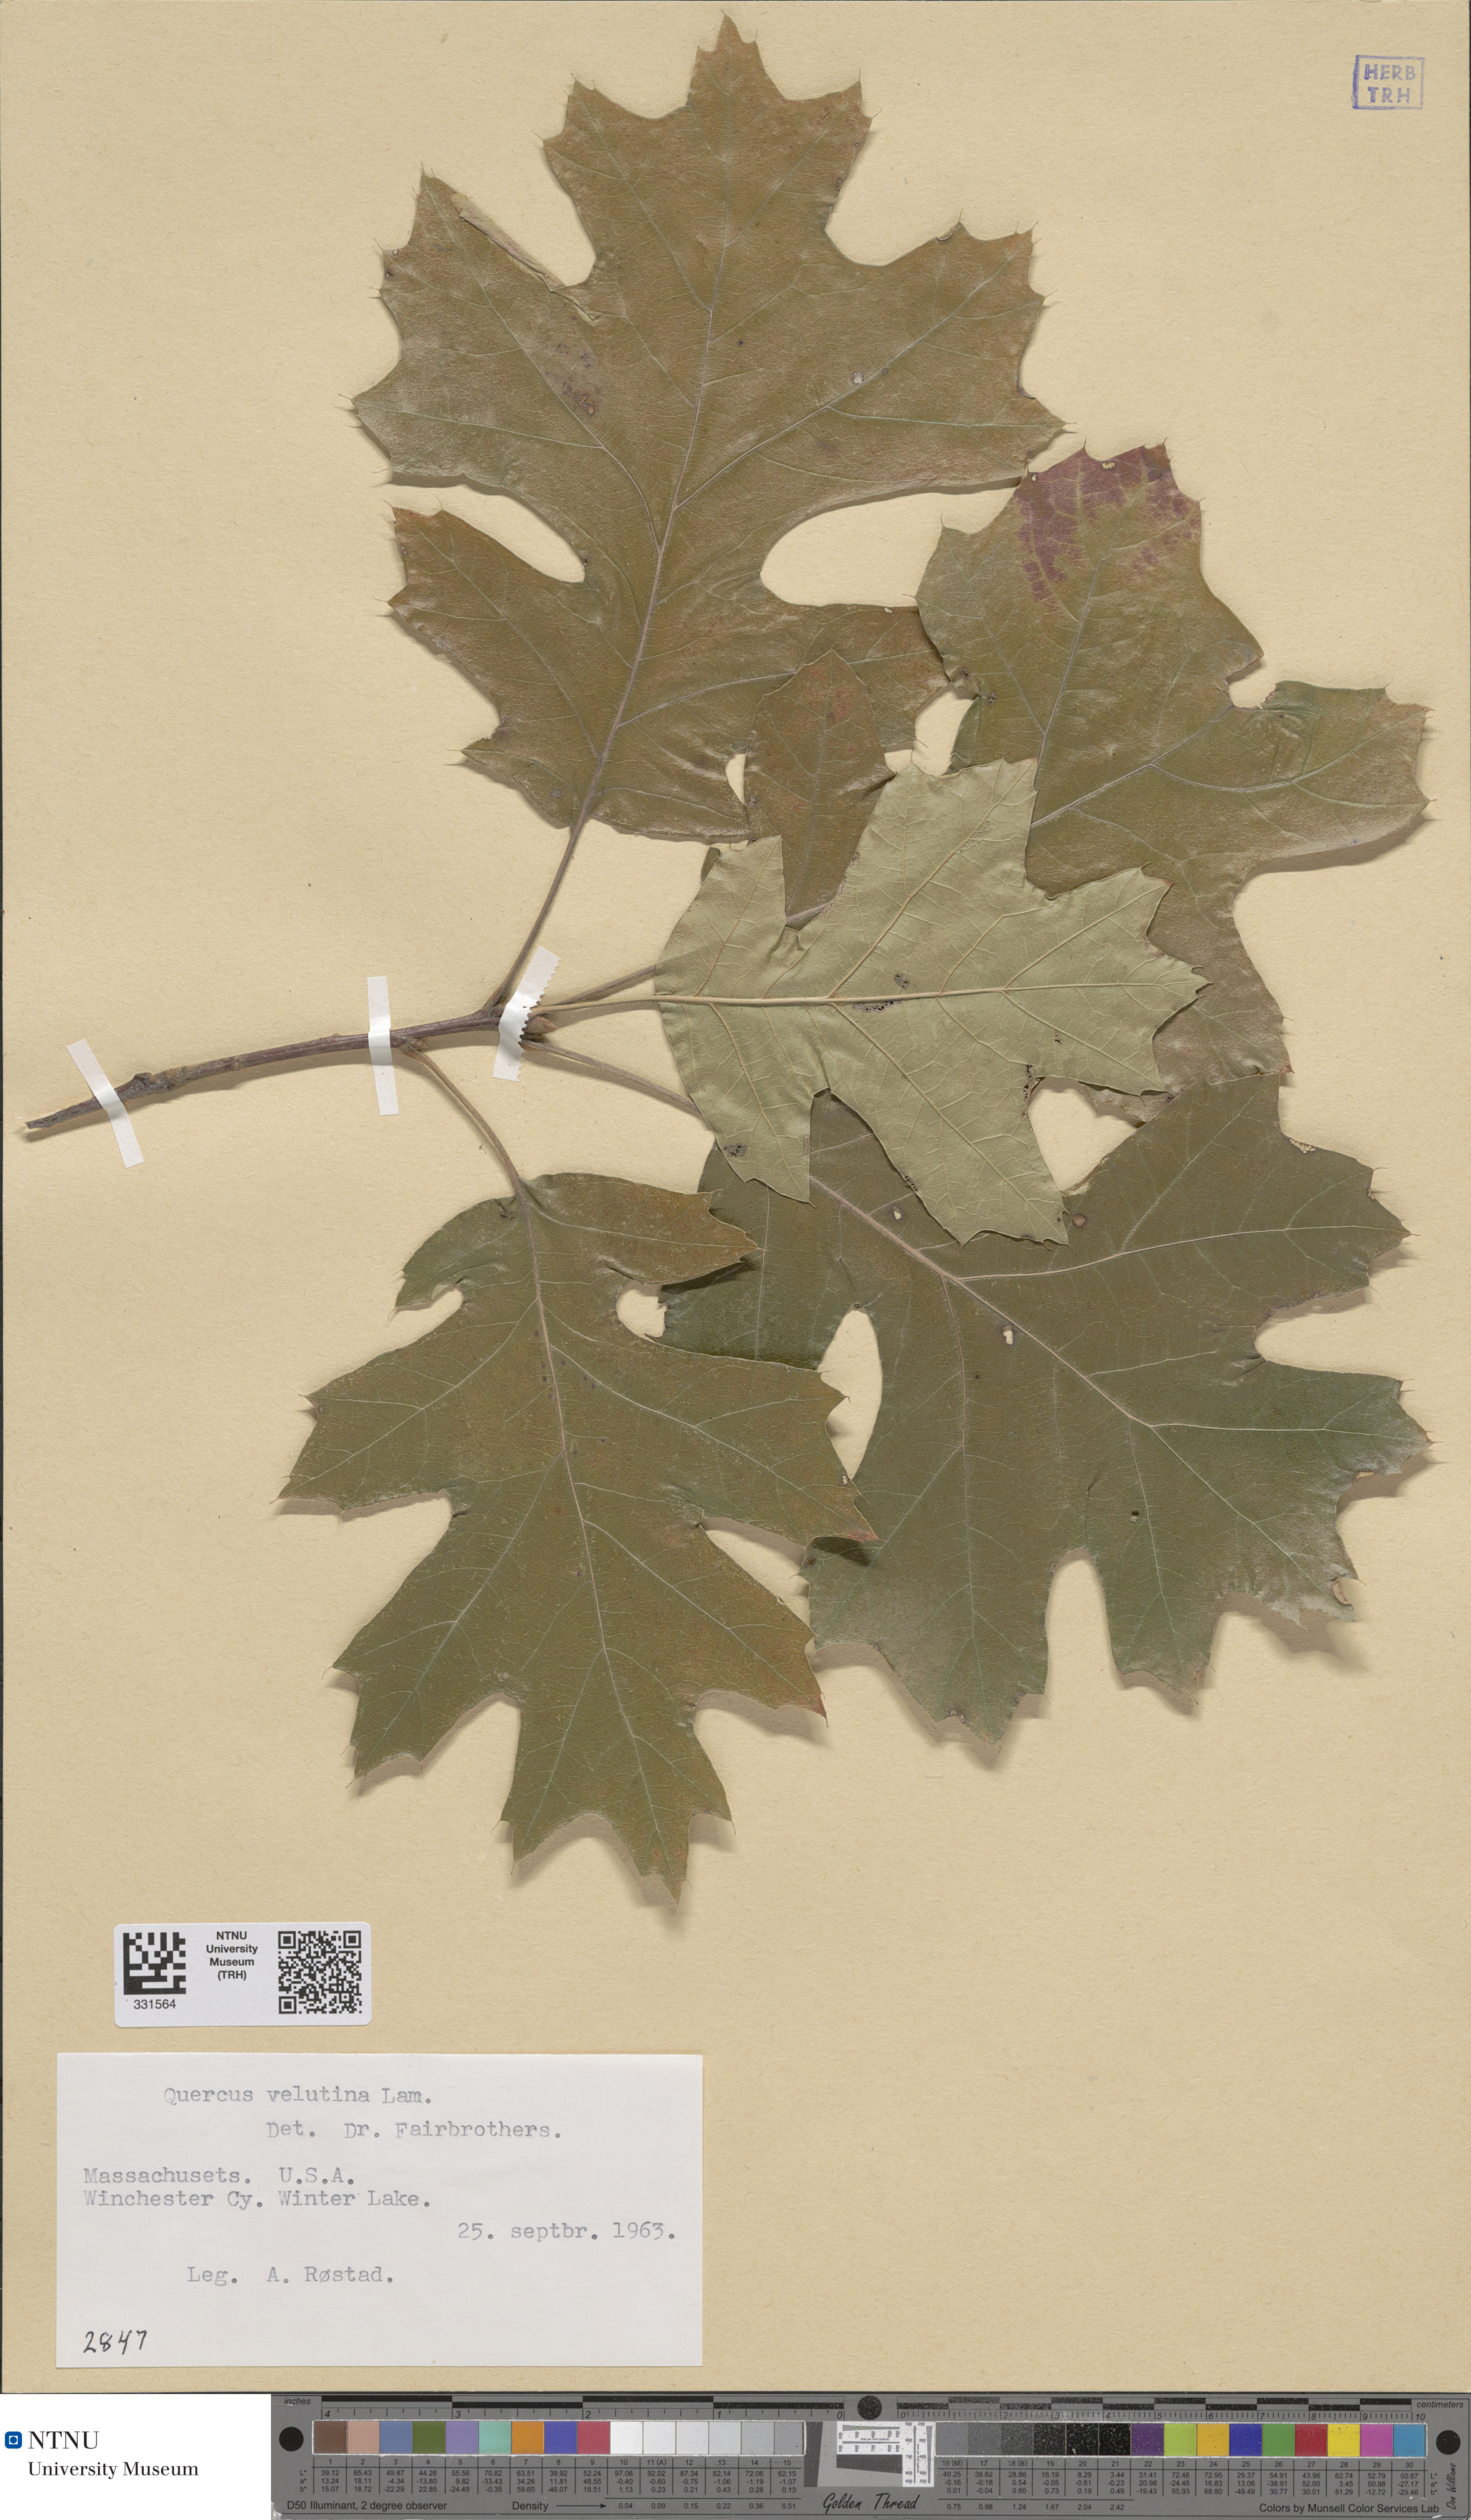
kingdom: Plantae
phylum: Tracheophyta
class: Magnoliopsida
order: Fagales
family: Fagaceae
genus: Quercus
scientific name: Quercus velutina
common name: Black oak
